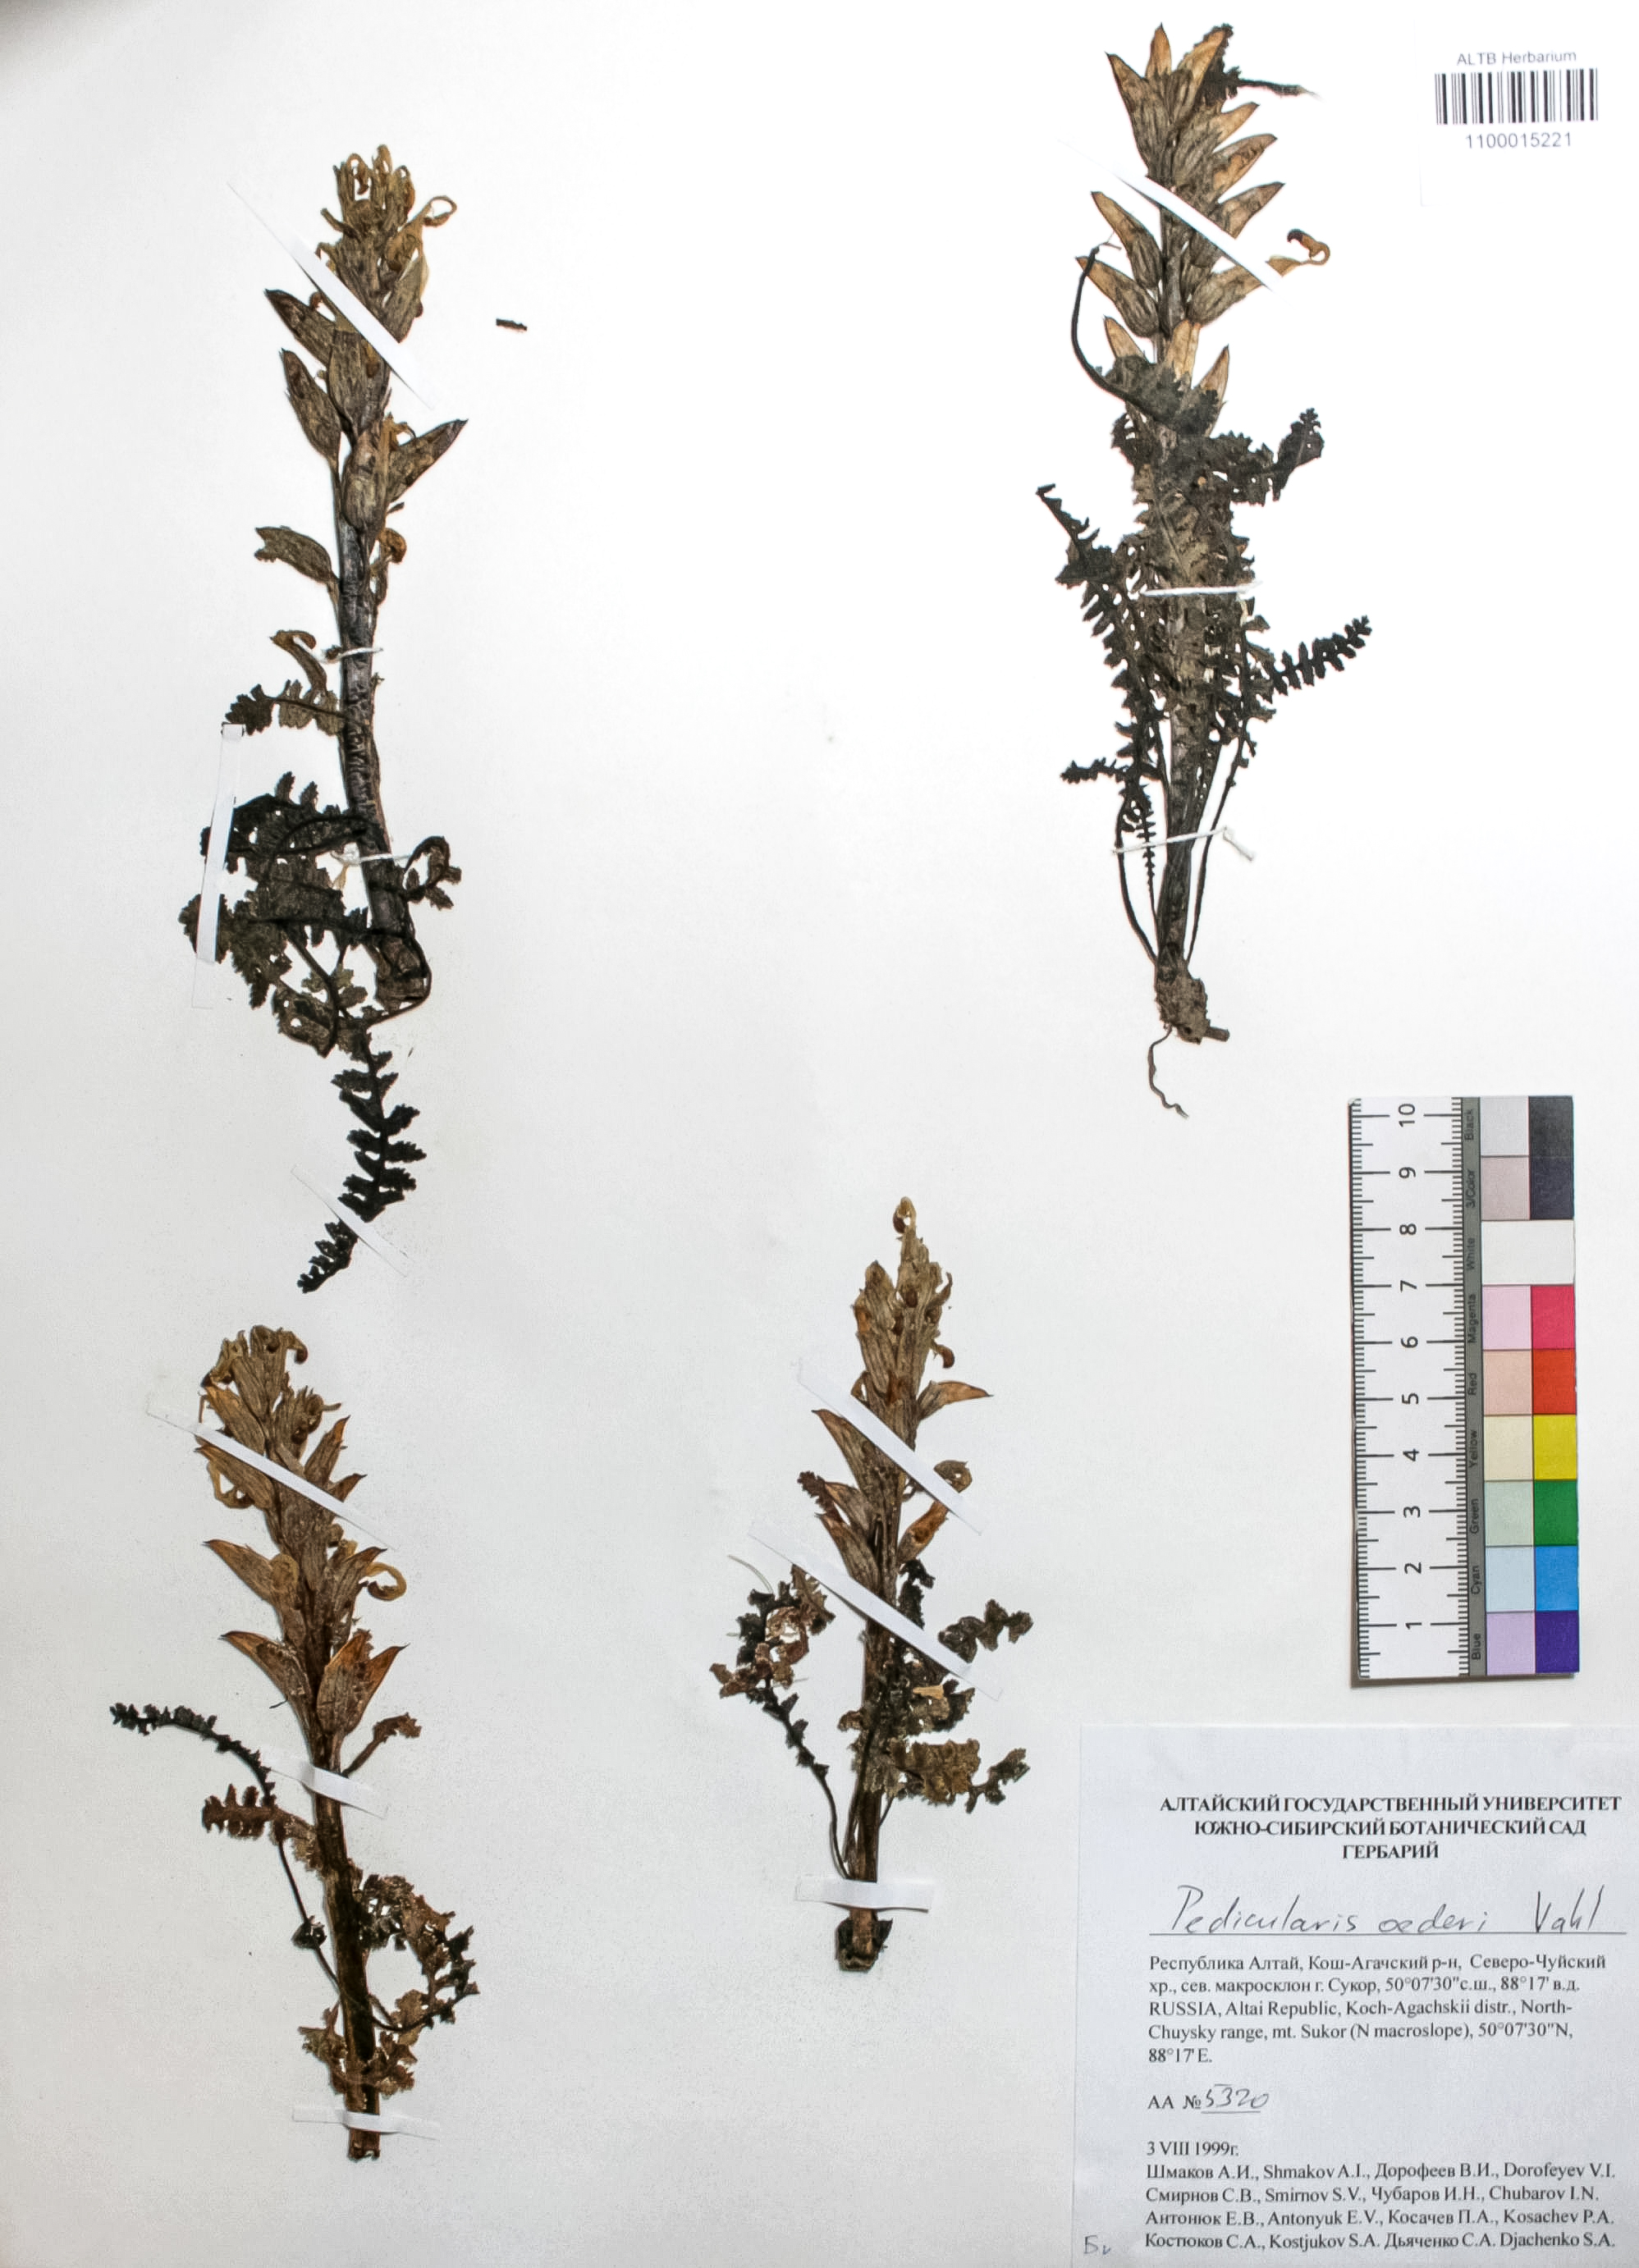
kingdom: Plantae
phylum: Tracheophyta
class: Magnoliopsida
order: Caryophyllales
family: Caryophyllaceae
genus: Silene
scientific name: Silene graminifolia
